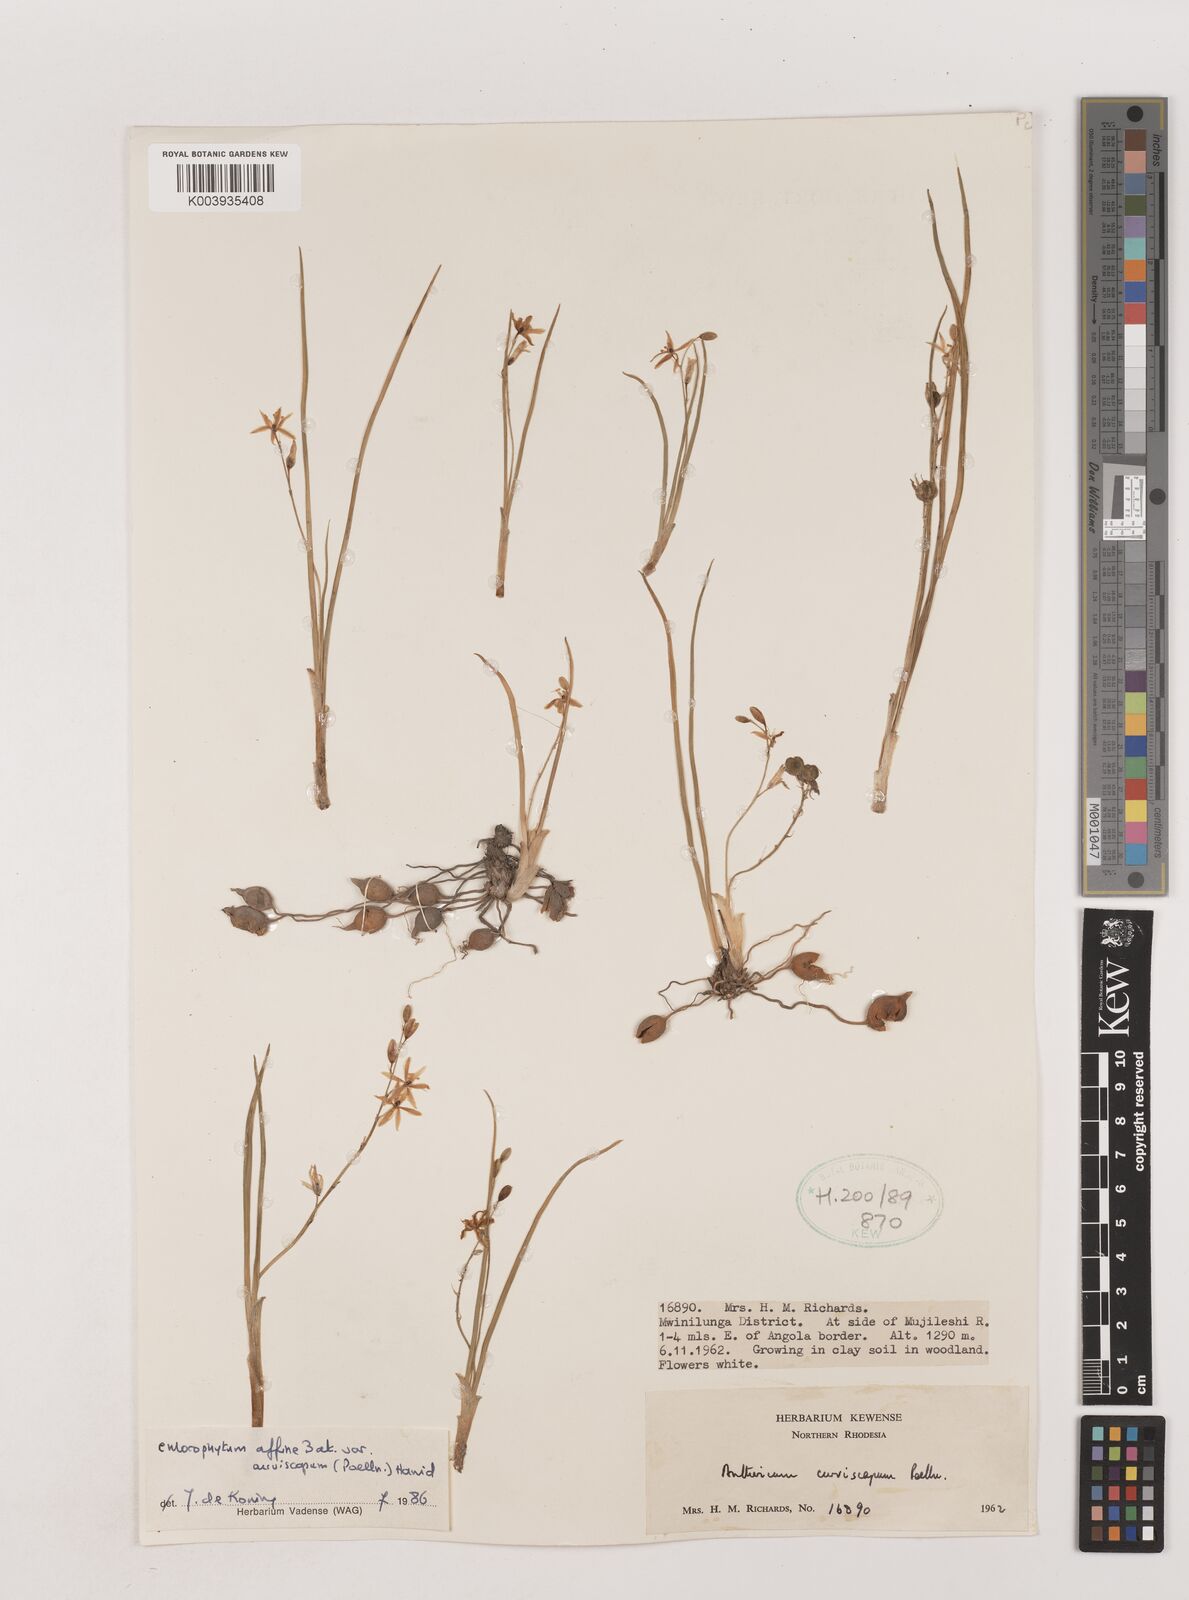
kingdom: Plantae
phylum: Tracheophyta
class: Liliopsida
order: Asparagales
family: Asparagaceae
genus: Chlorophytum
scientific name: Chlorophytum tordense
